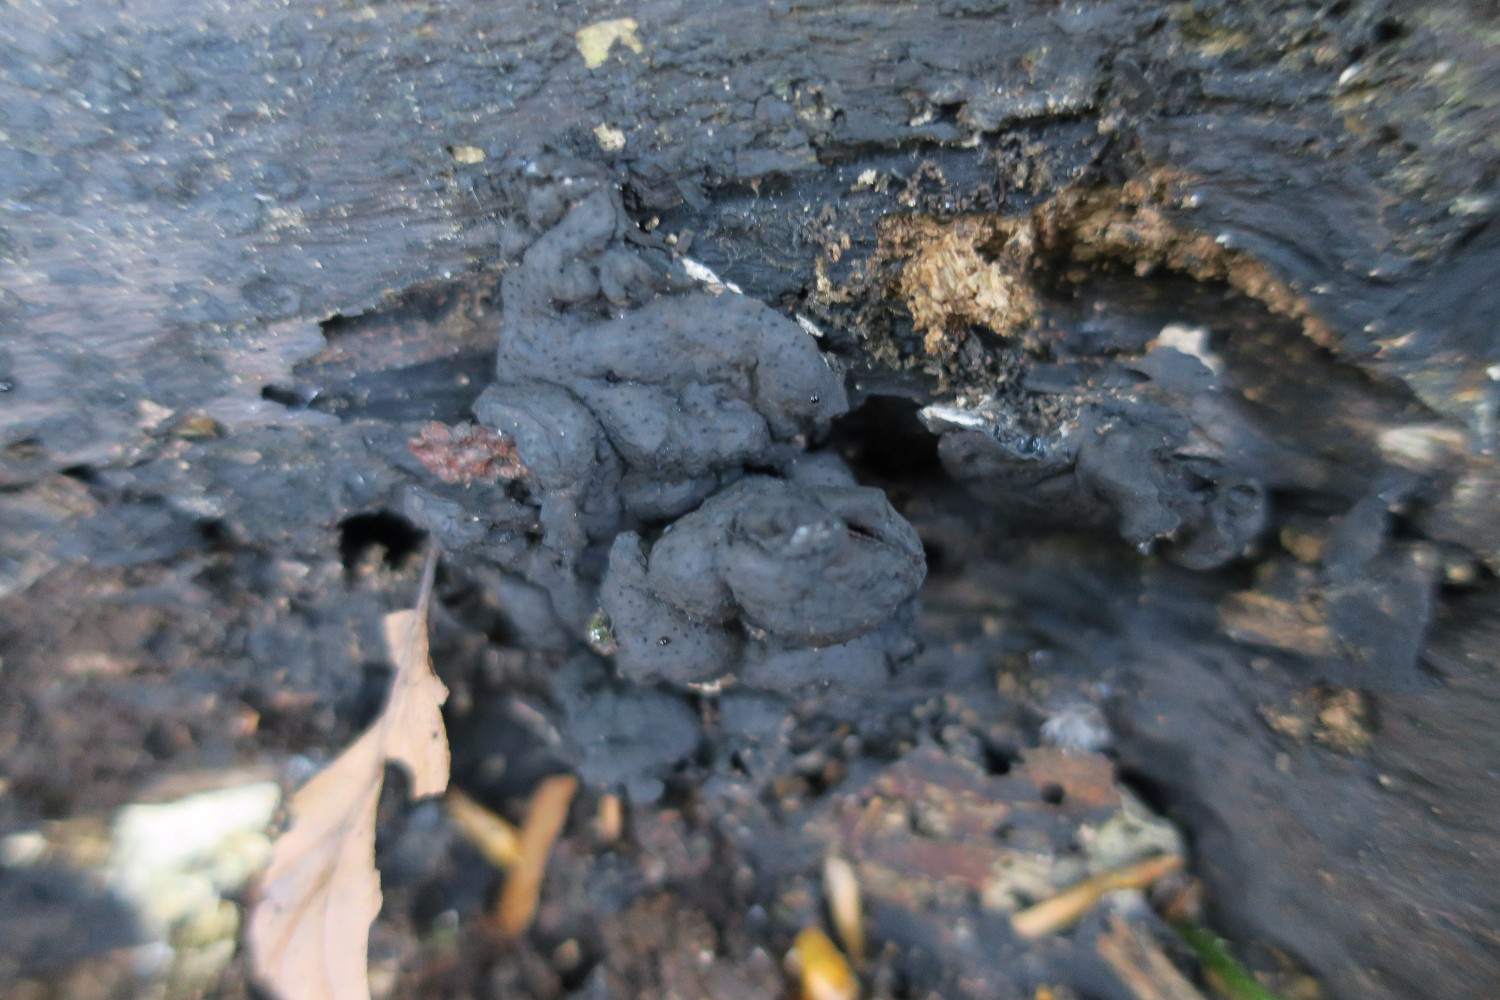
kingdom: Fungi
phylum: Ascomycota
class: Sordariomycetes
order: Xylariales
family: Xylariaceae
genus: Kretzschmaria
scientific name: Kretzschmaria deusta
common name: stor kulsvamp
